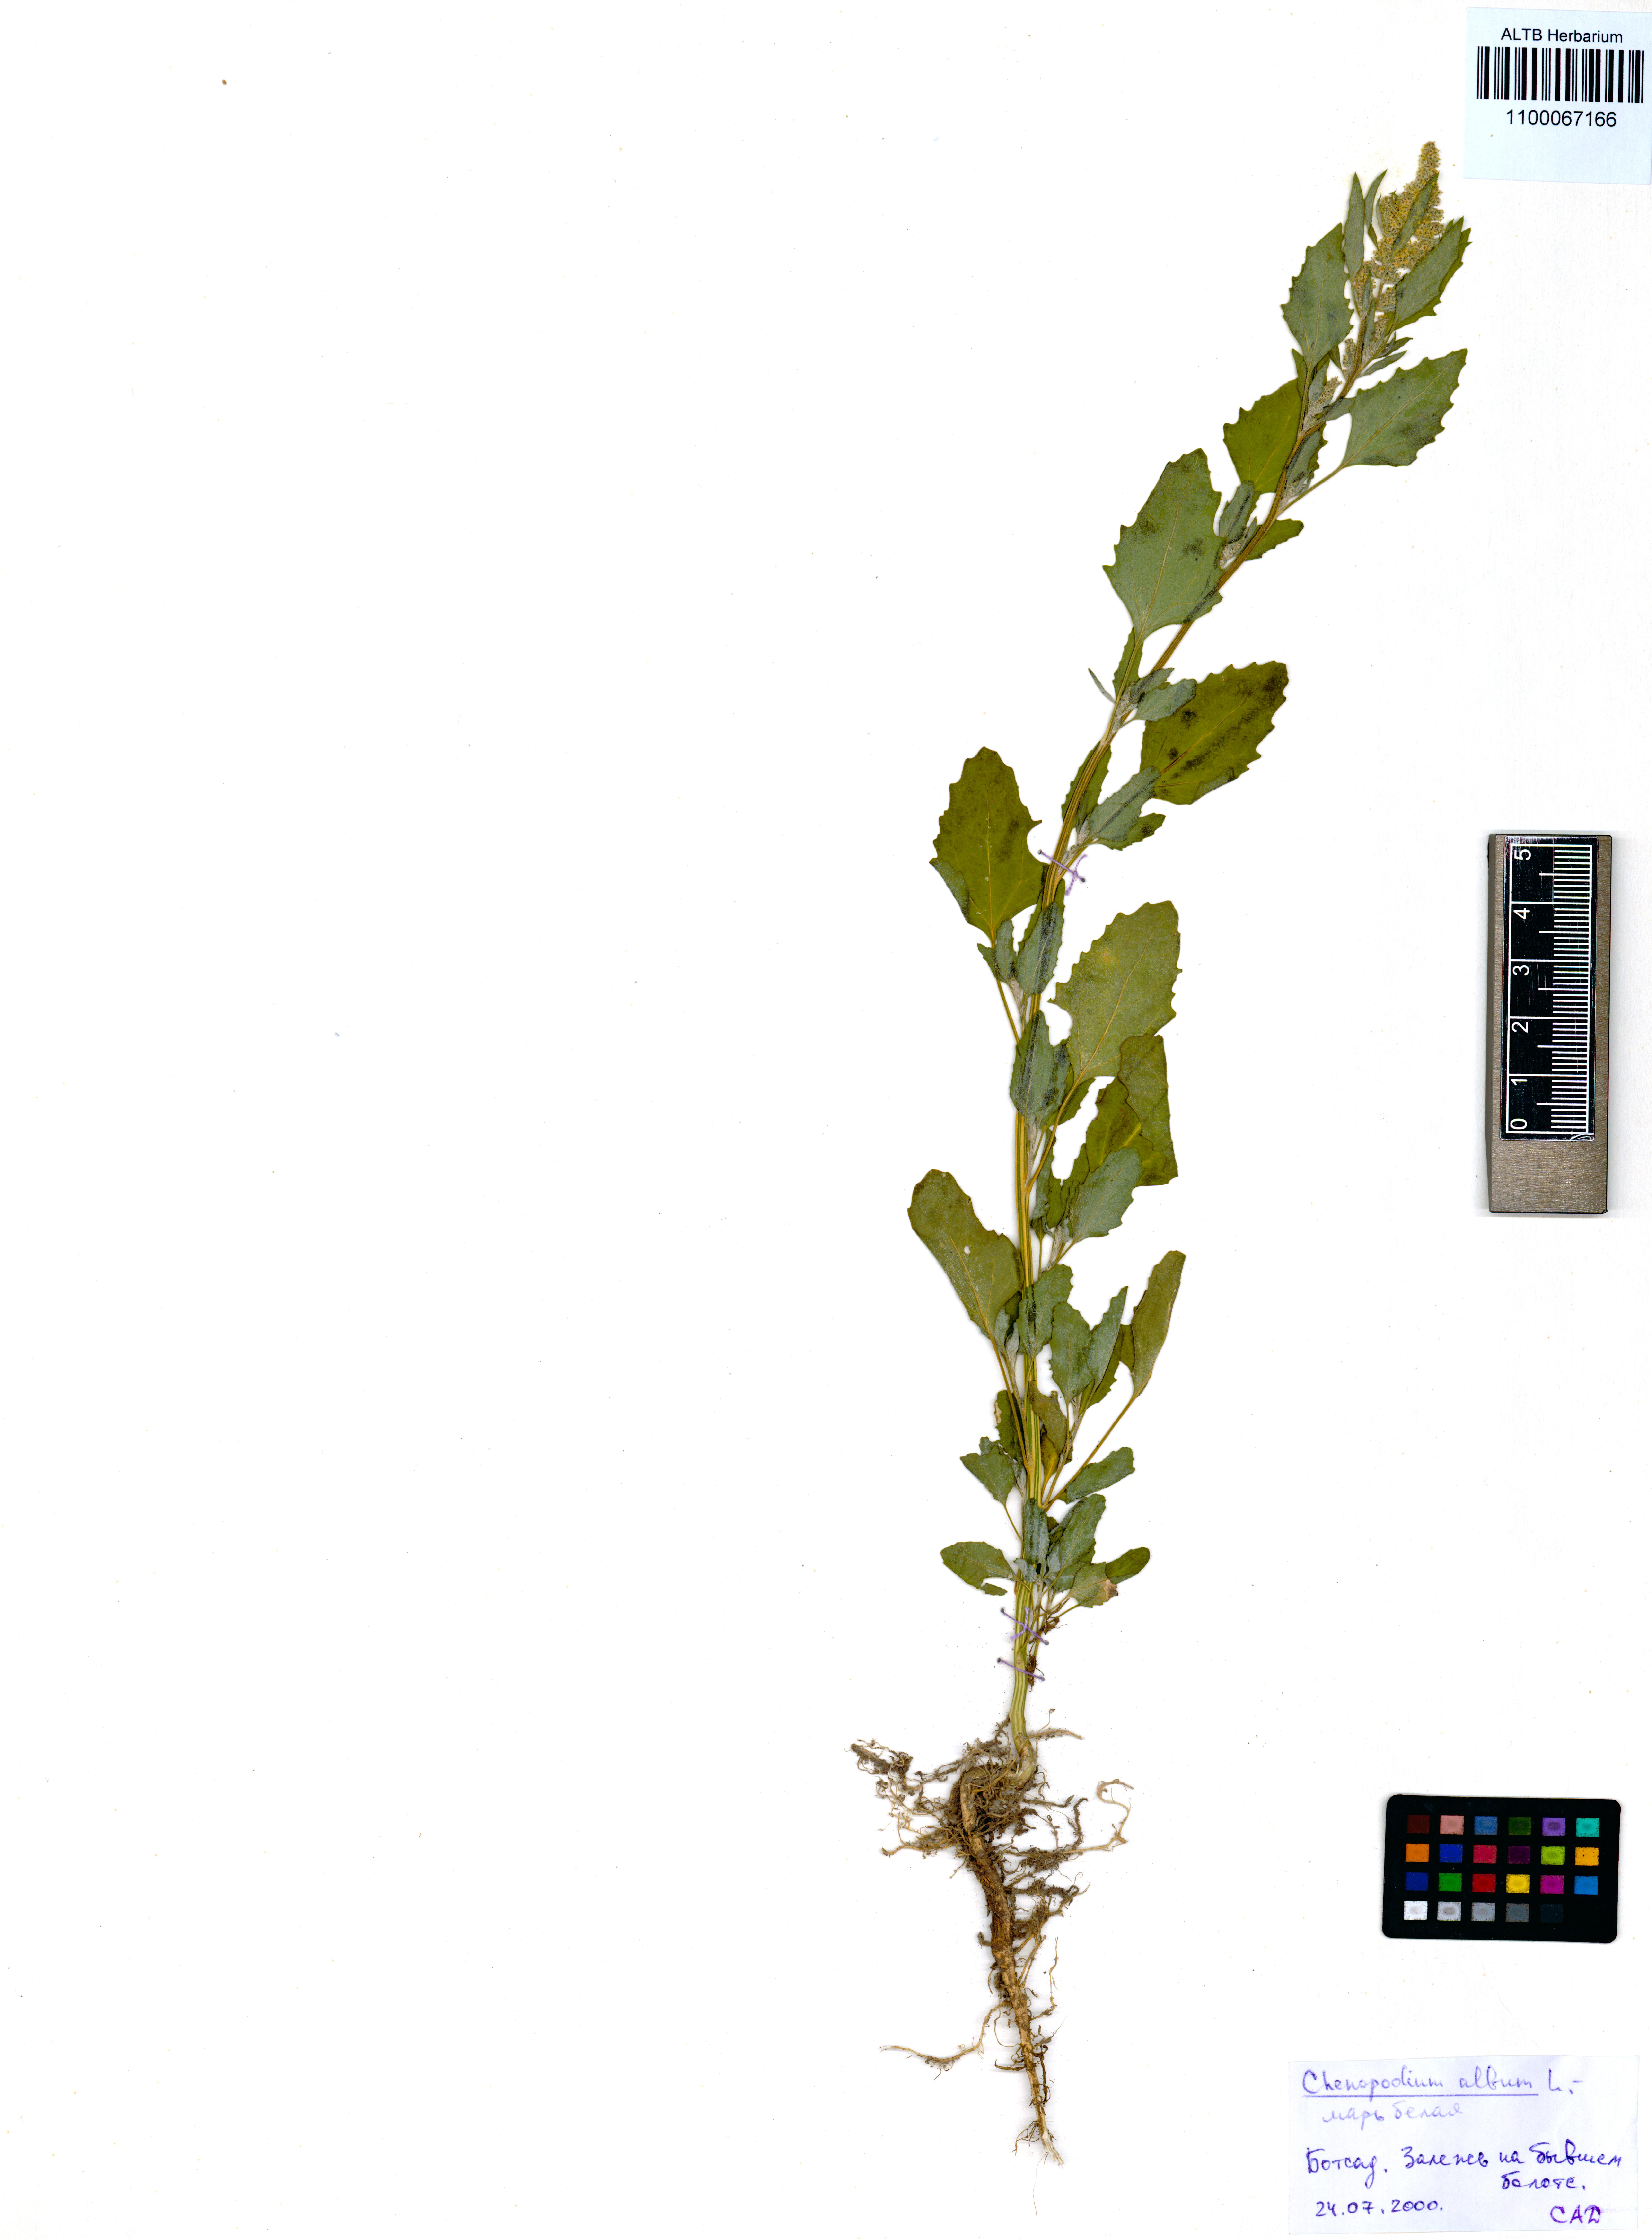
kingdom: Plantae
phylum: Tracheophyta
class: Magnoliopsida
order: Caryophyllales
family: Amaranthaceae
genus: Chenopodium
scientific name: Chenopodium album
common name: Fat-hen
